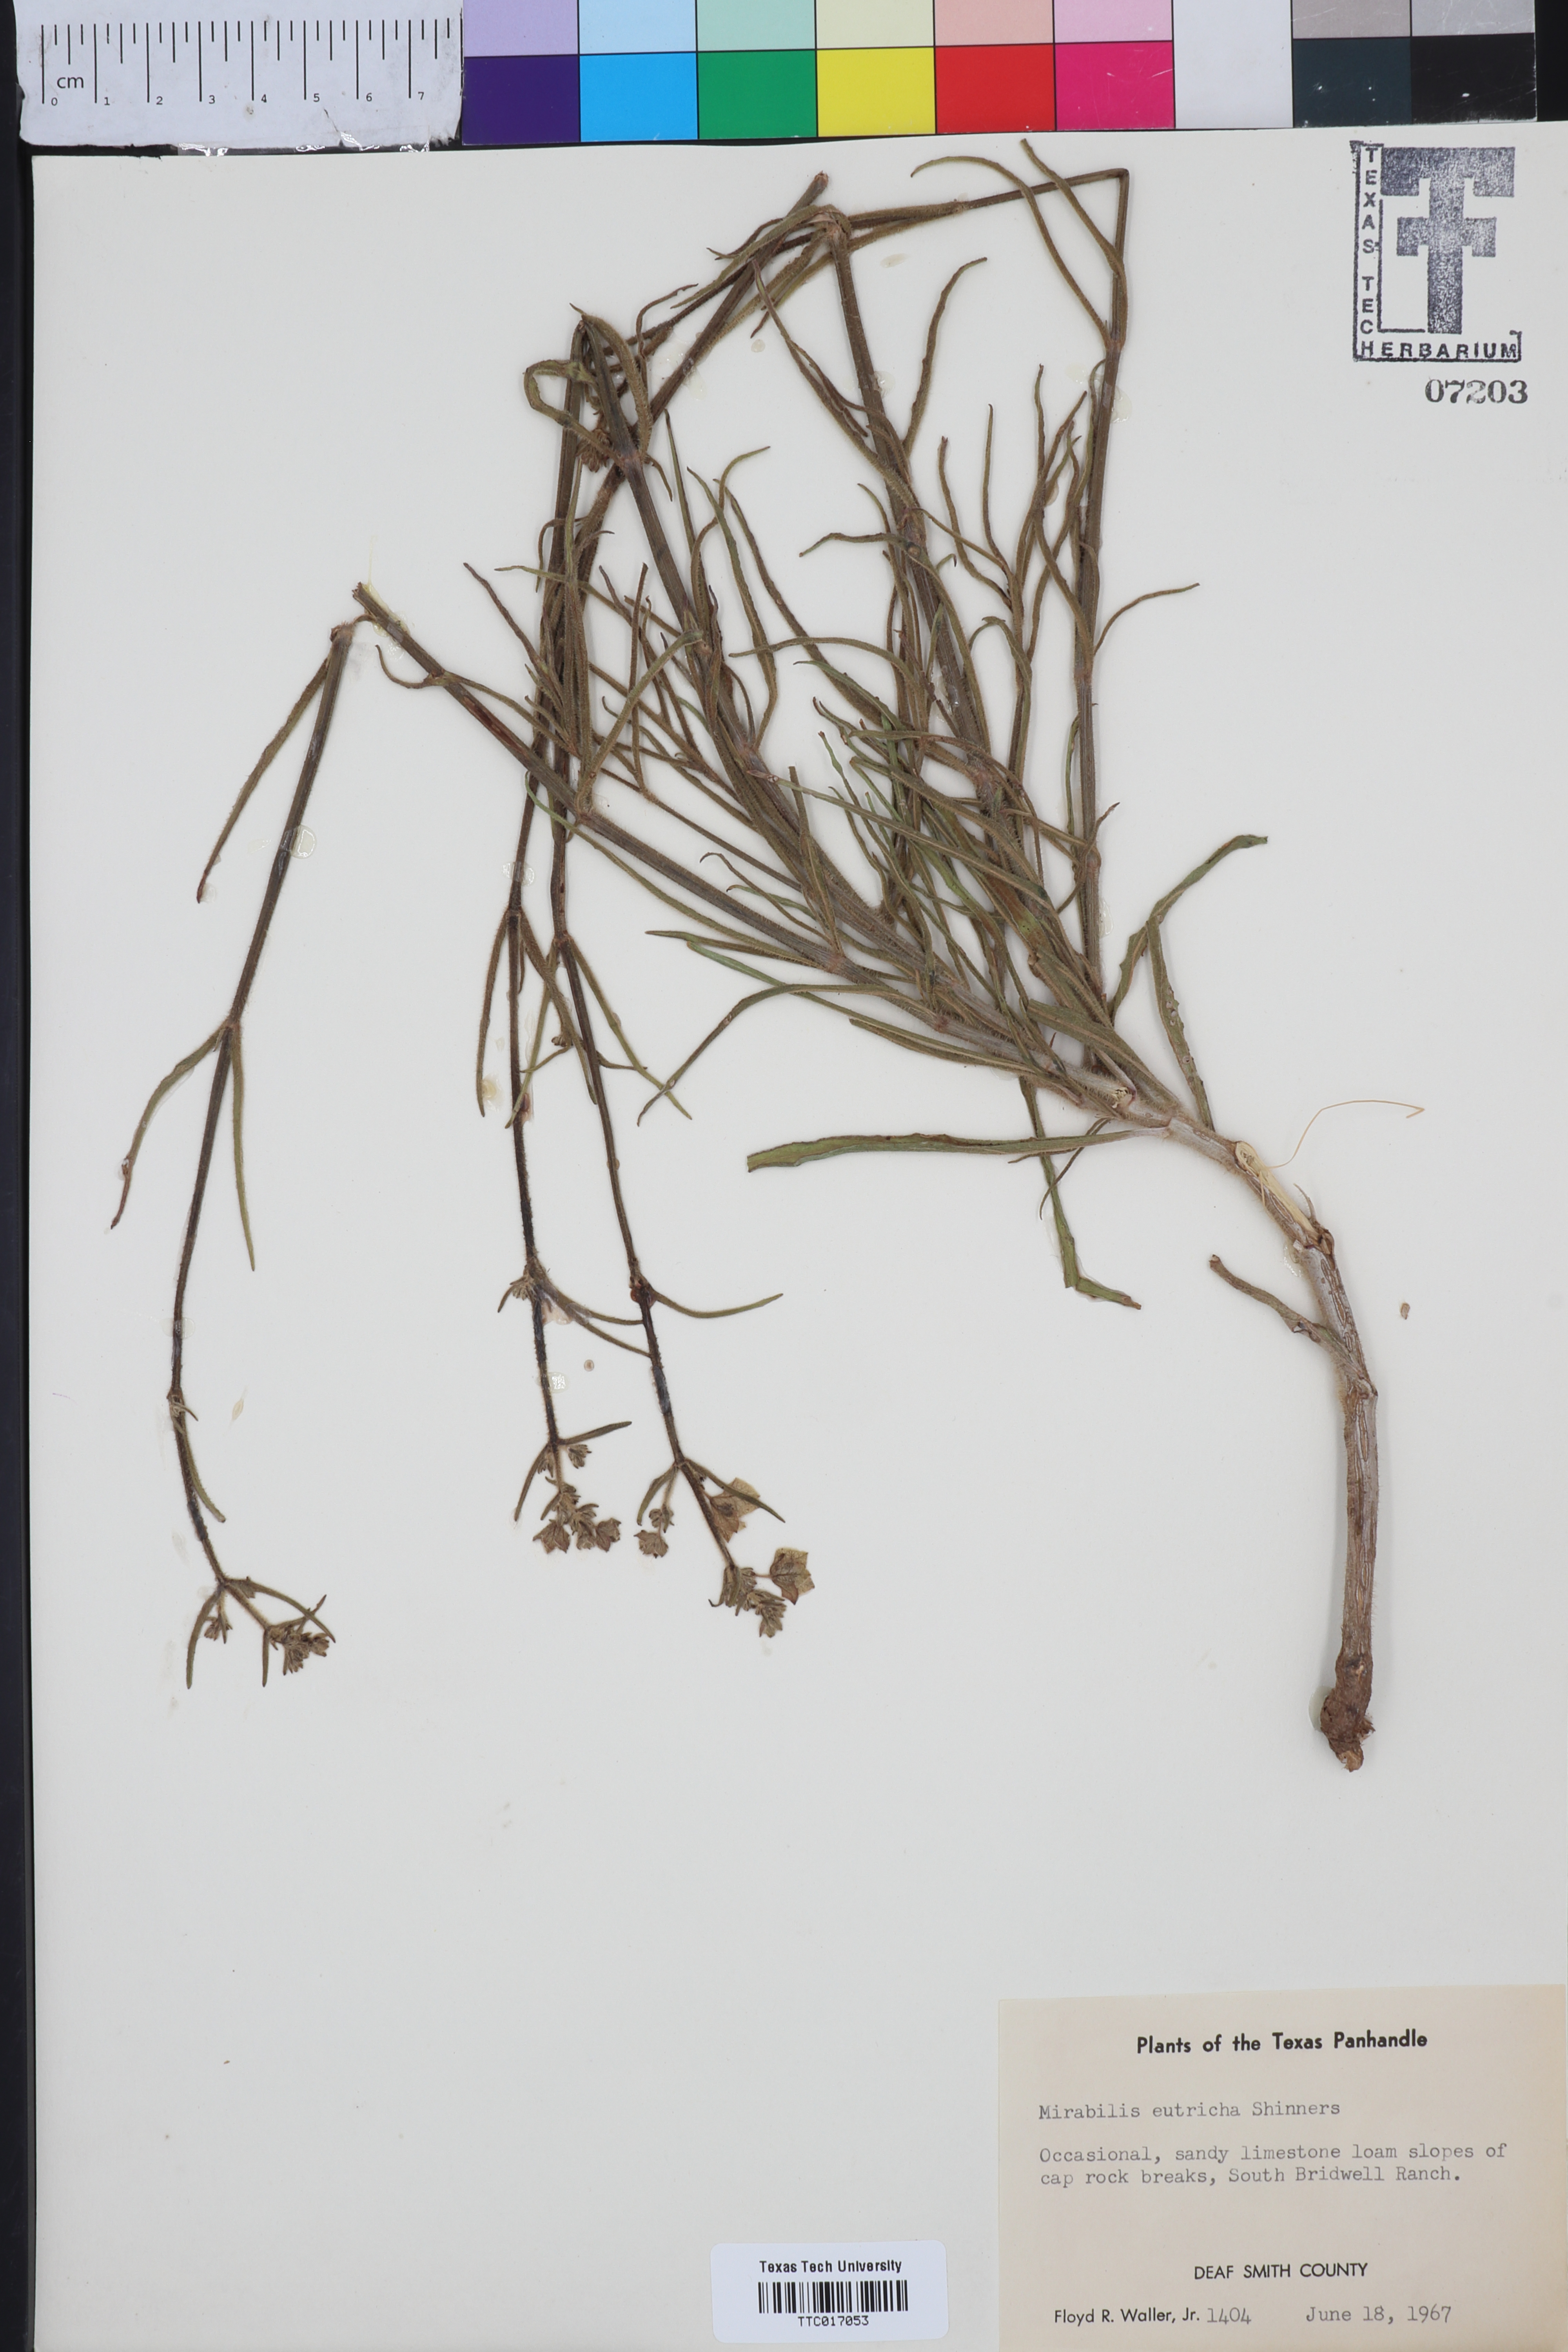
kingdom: Plantae
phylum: Tracheophyta
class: Magnoliopsida
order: Caryophyllales
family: Nyctaginaceae
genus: Mirabilis
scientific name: Mirabilis albida
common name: Hairy four-o'clock
